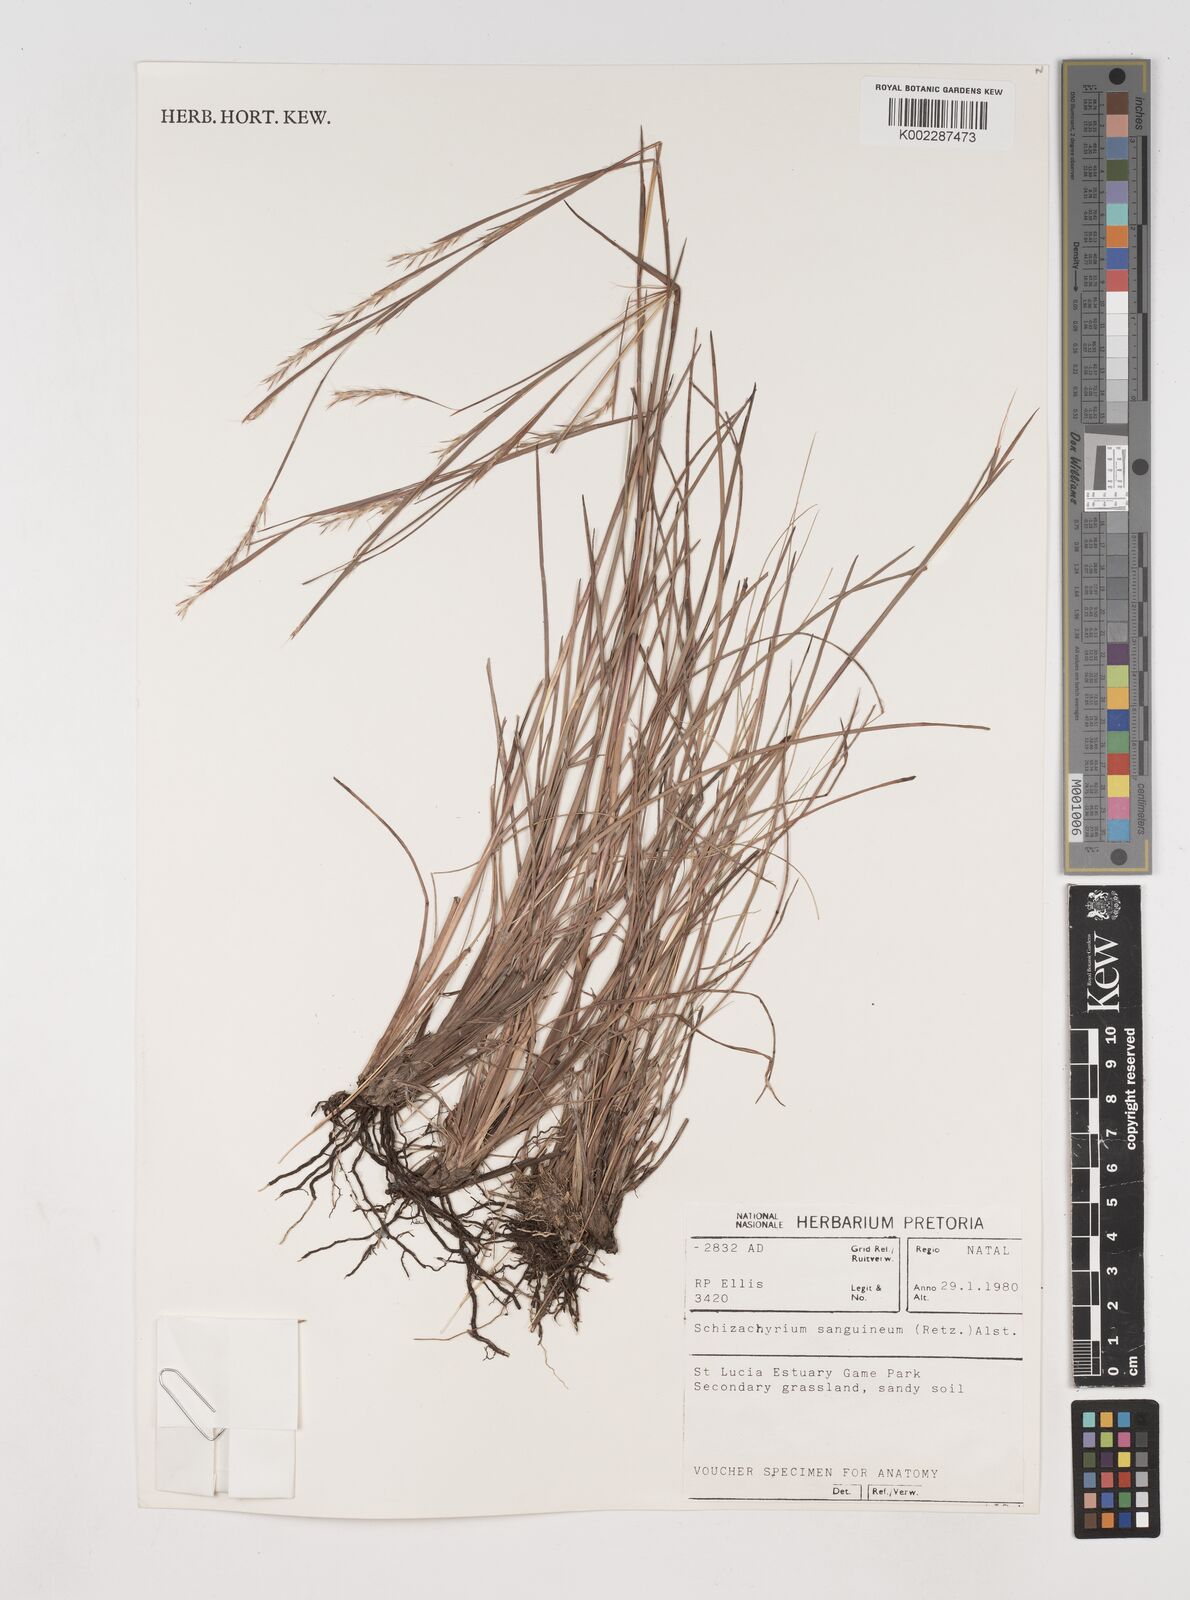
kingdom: Plantae
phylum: Tracheophyta
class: Liliopsida
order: Poales
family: Poaceae
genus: Schizachyrium
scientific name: Schizachyrium sanguineum
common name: Crimson bluestem
